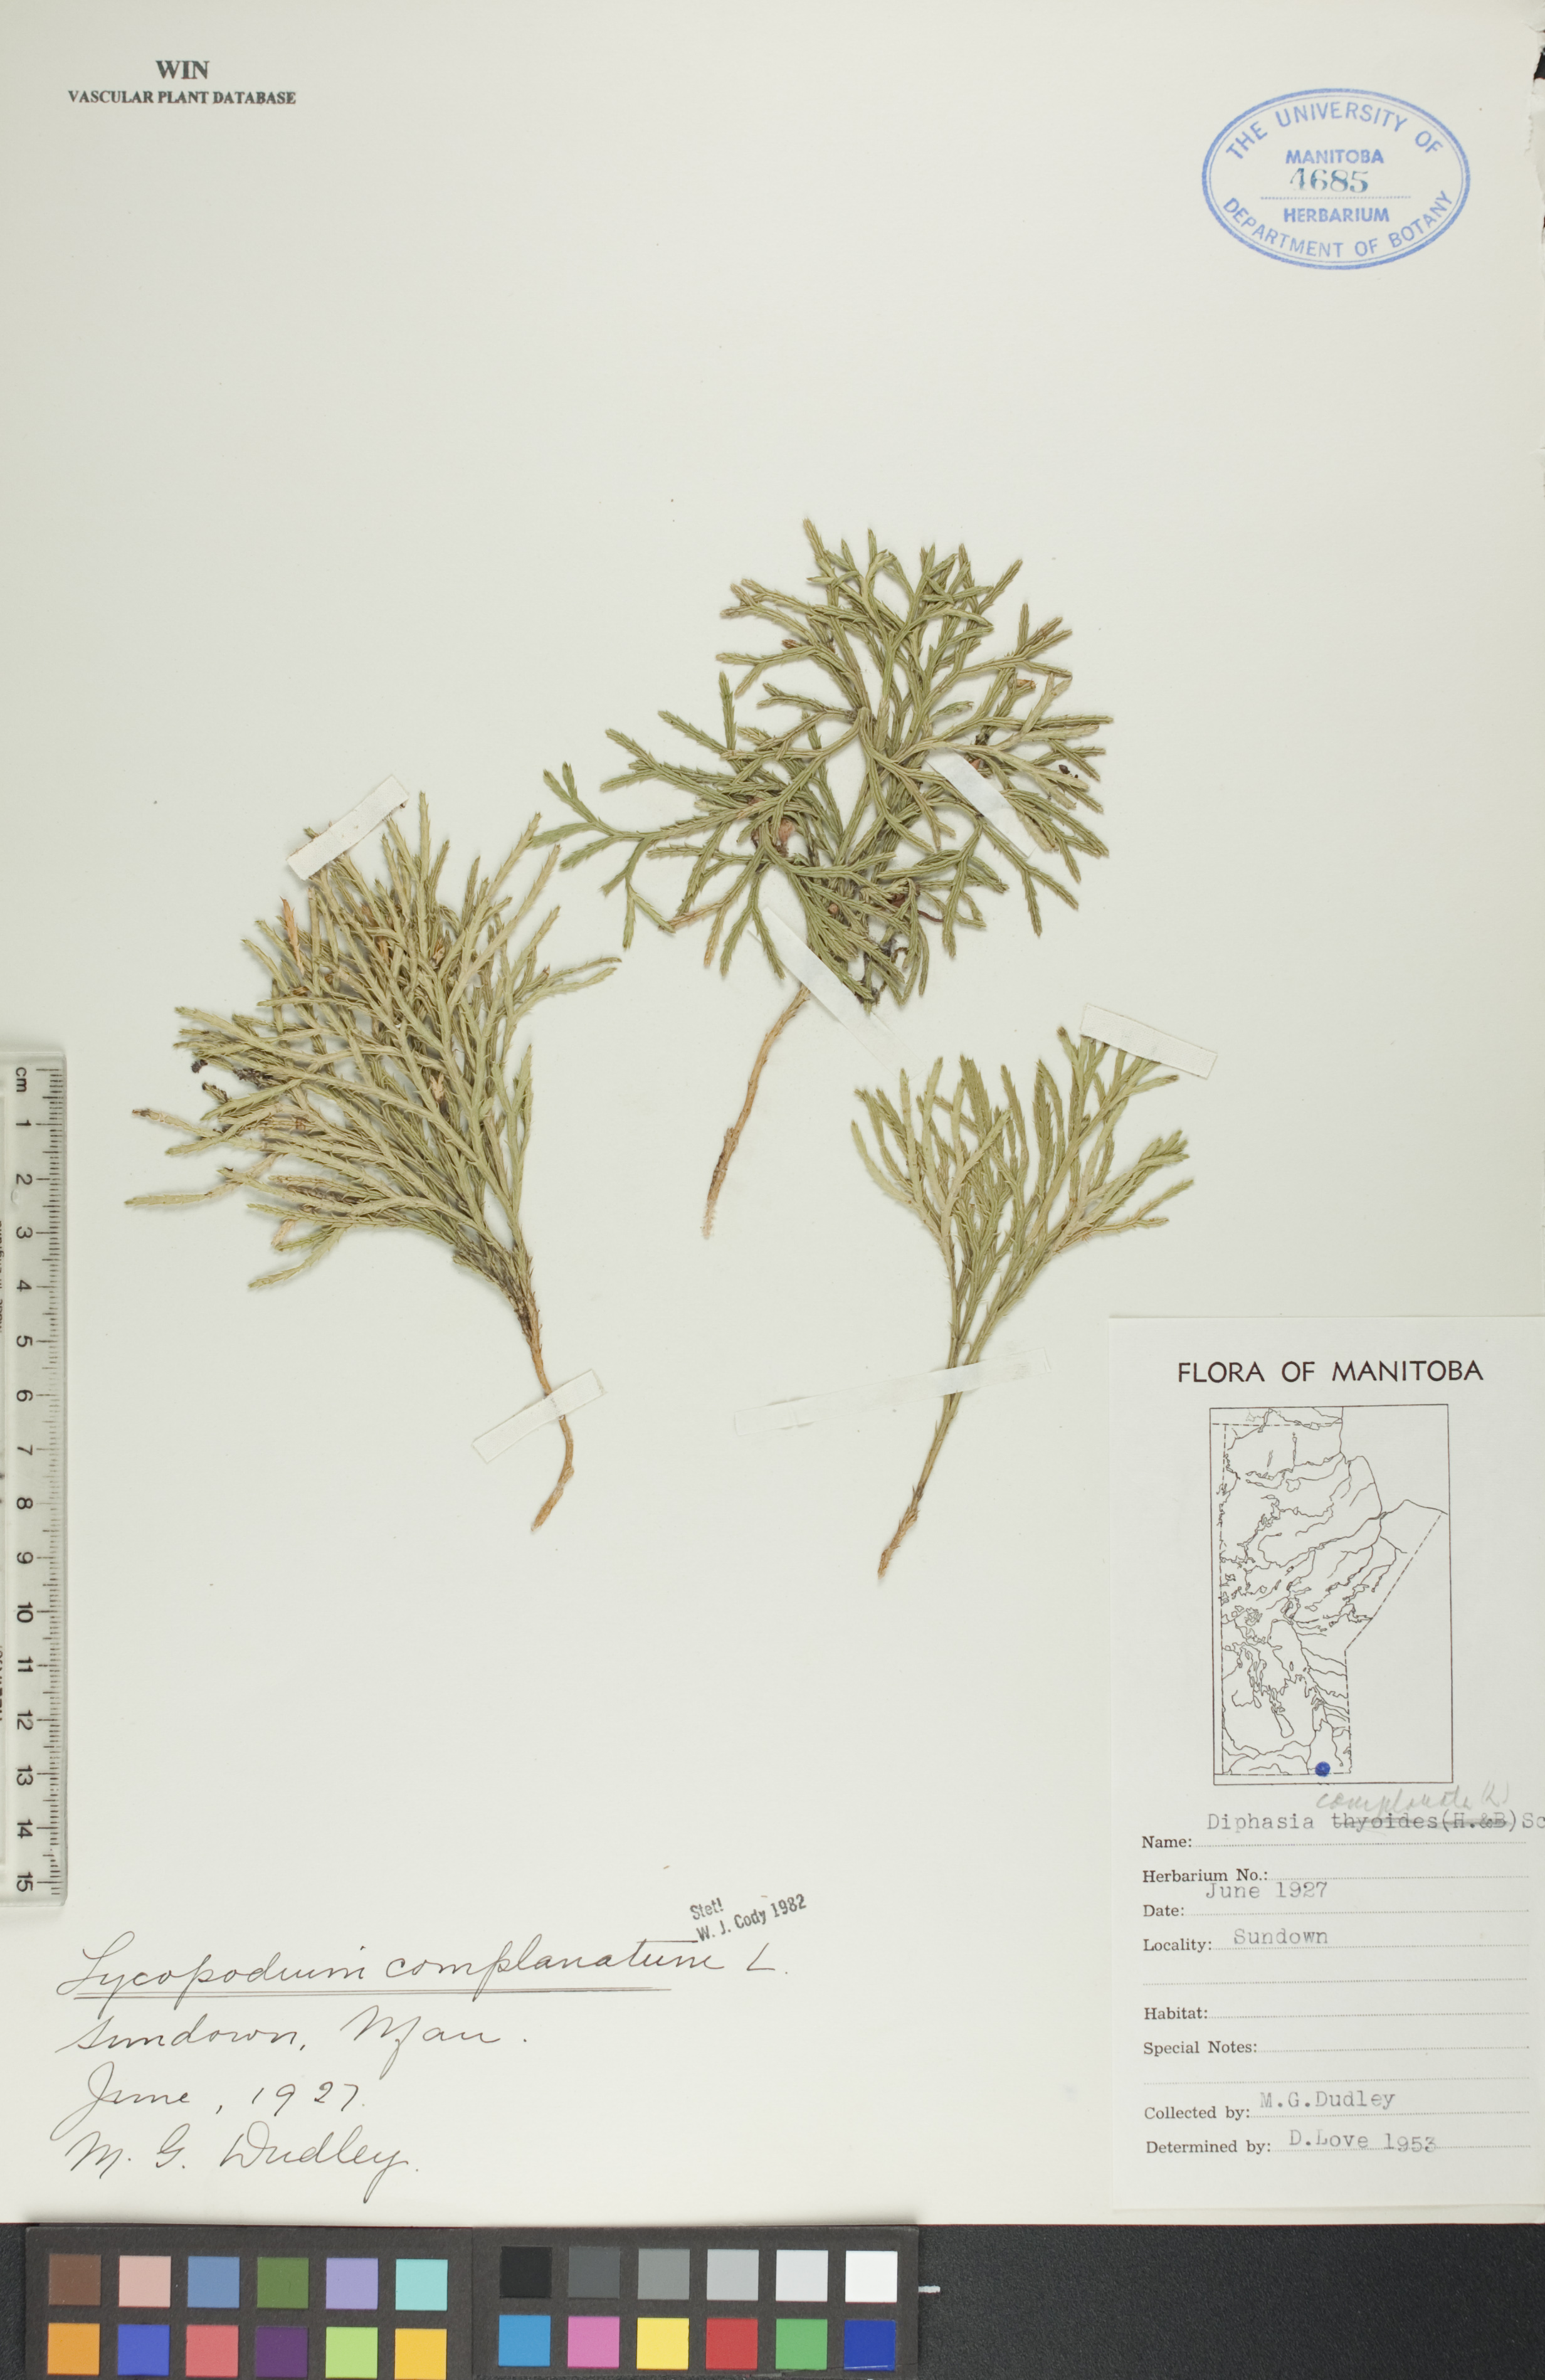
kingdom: Plantae
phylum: Tracheophyta
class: Lycopodiopsida
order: Lycopodiales
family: Lycopodiaceae
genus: Diphasiastrum
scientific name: Diphasiastrum
